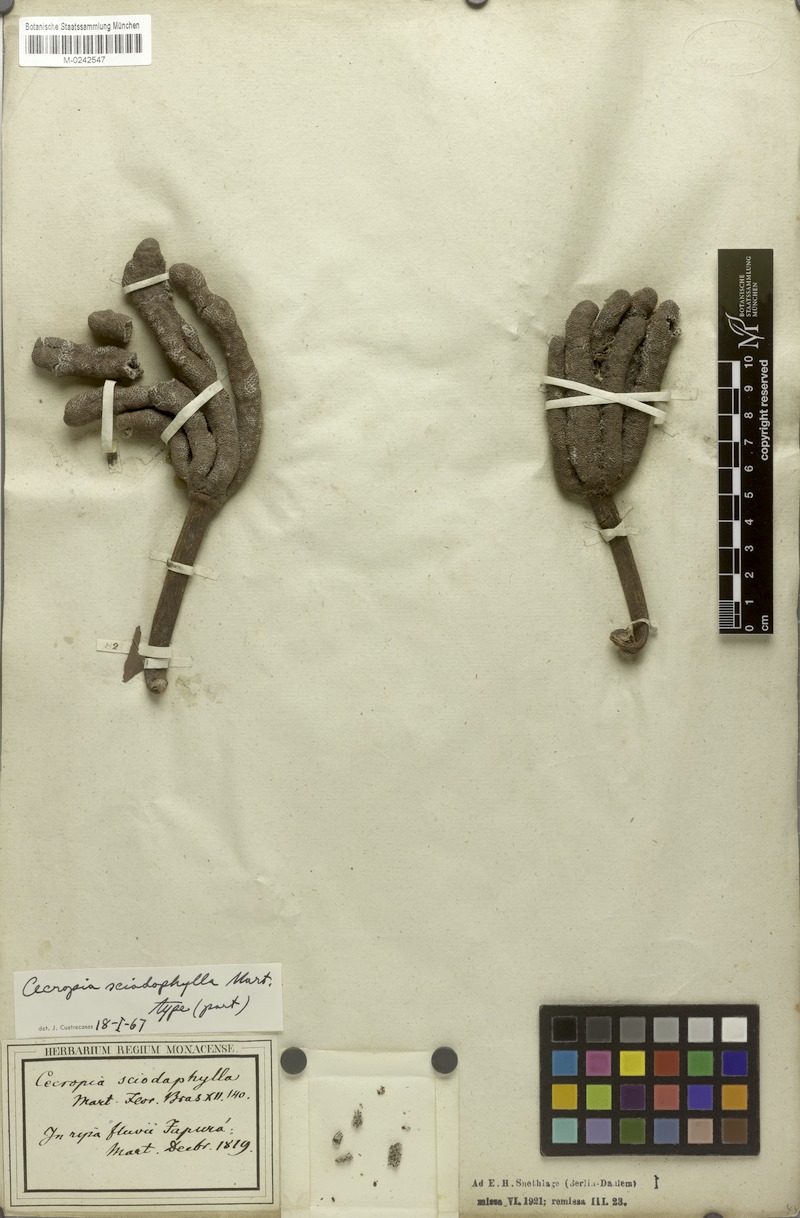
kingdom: Plantae
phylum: Tracheophyta
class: Magnoliopsida
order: Rosales
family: Urticaceae
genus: Cecropia
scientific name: Cecropia sciadophylla
